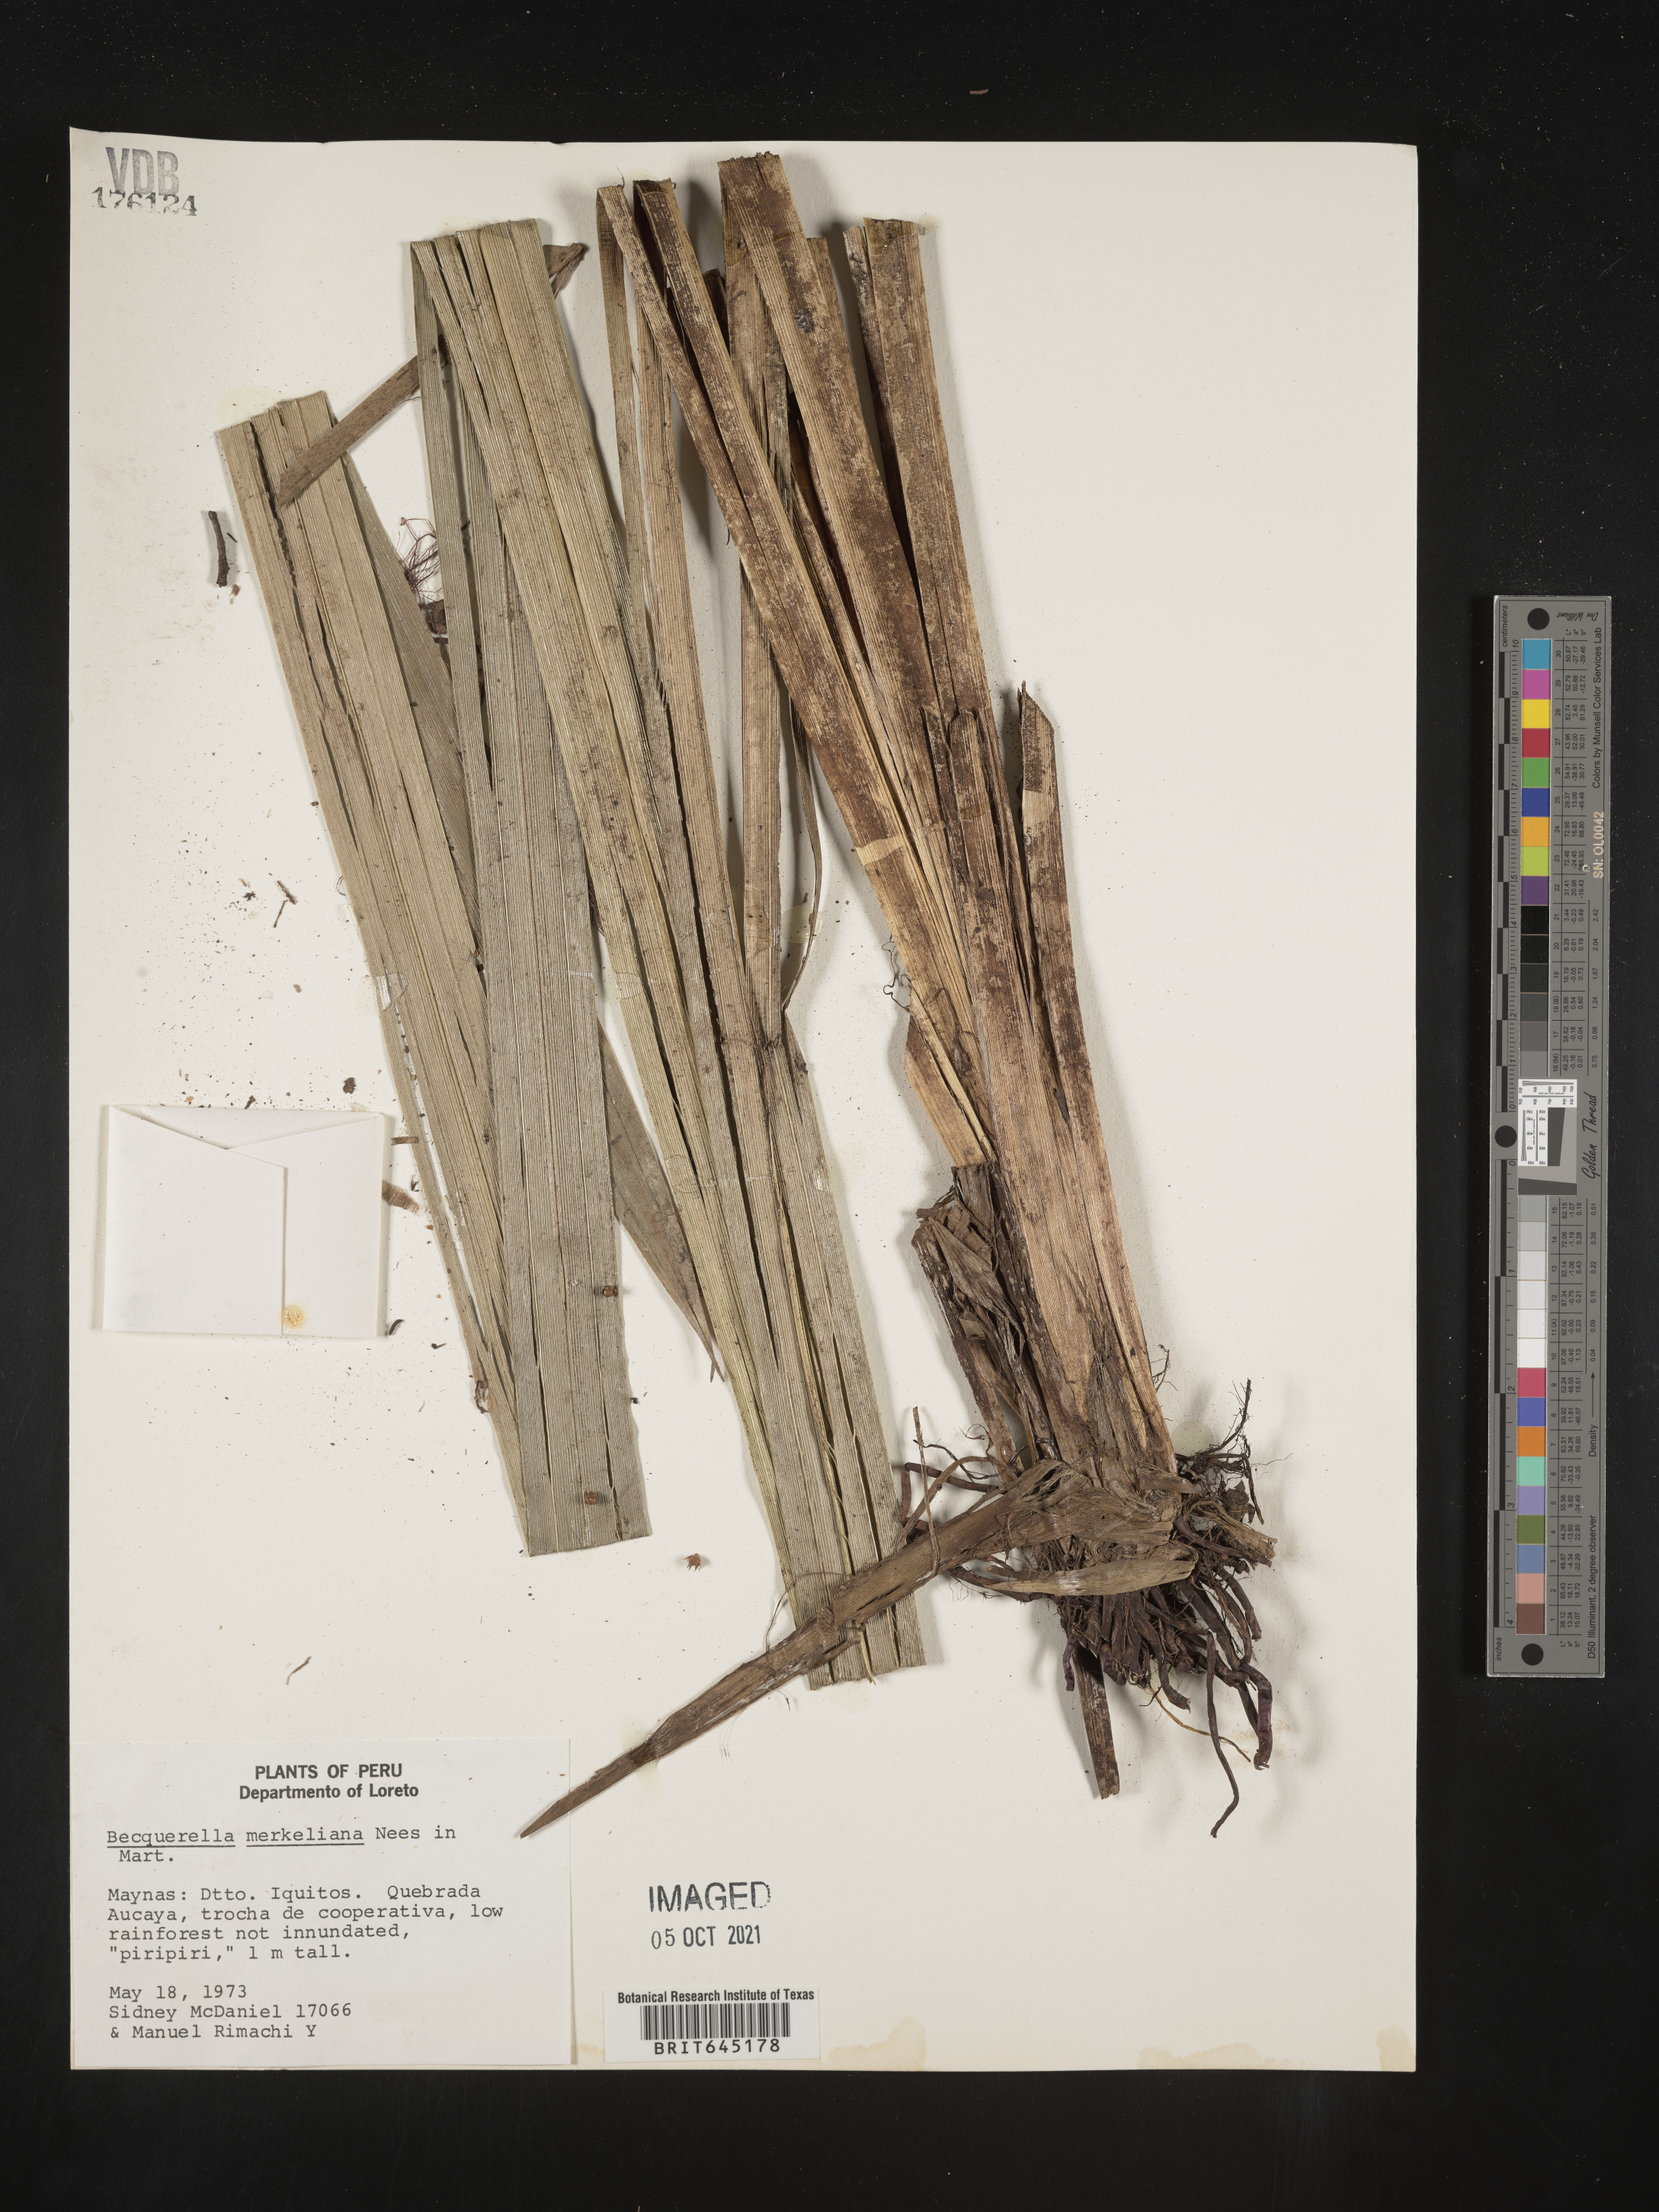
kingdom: Plantae
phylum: Tracheophyta
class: Liliopsida
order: Poales
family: Cyperaceae
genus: Becquerelia
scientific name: Becquerelia merkeliana
